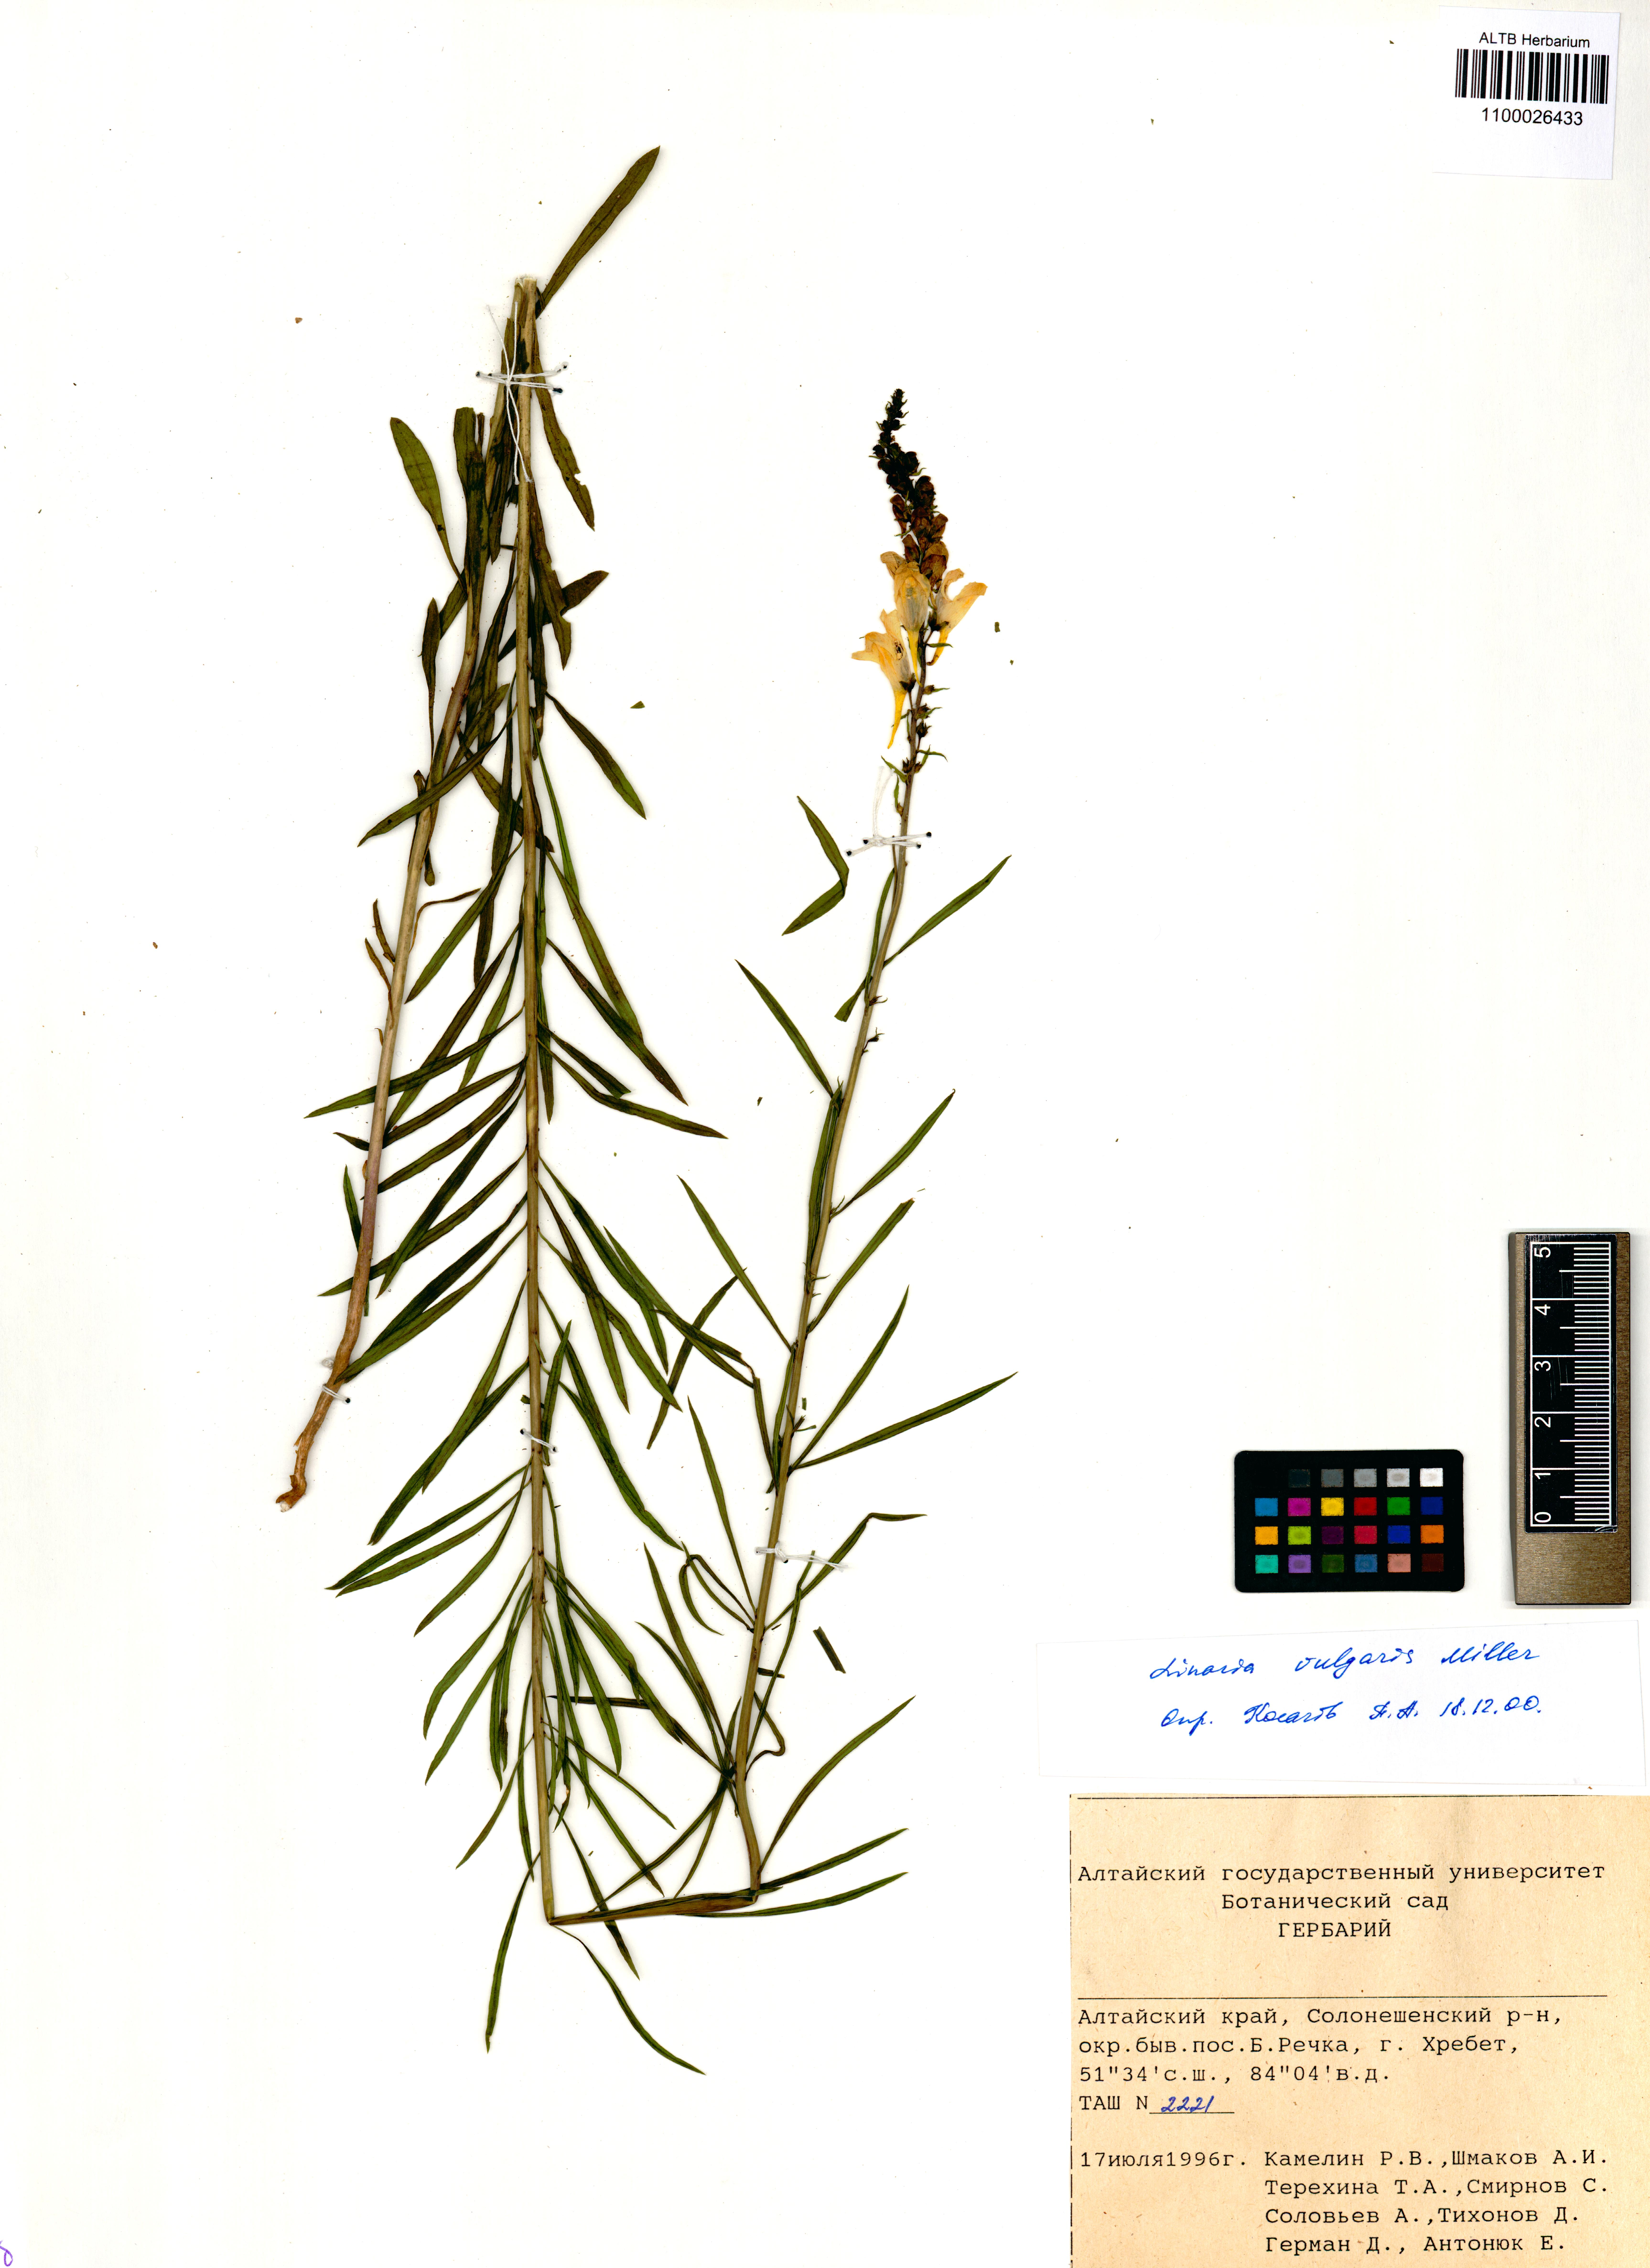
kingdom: Plantae
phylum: Tracheophyta
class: Magnoliopsida
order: Lamiales
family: Plantaginaceae
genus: Linaria
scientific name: Linaria vulgaris
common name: Butter and eggs
